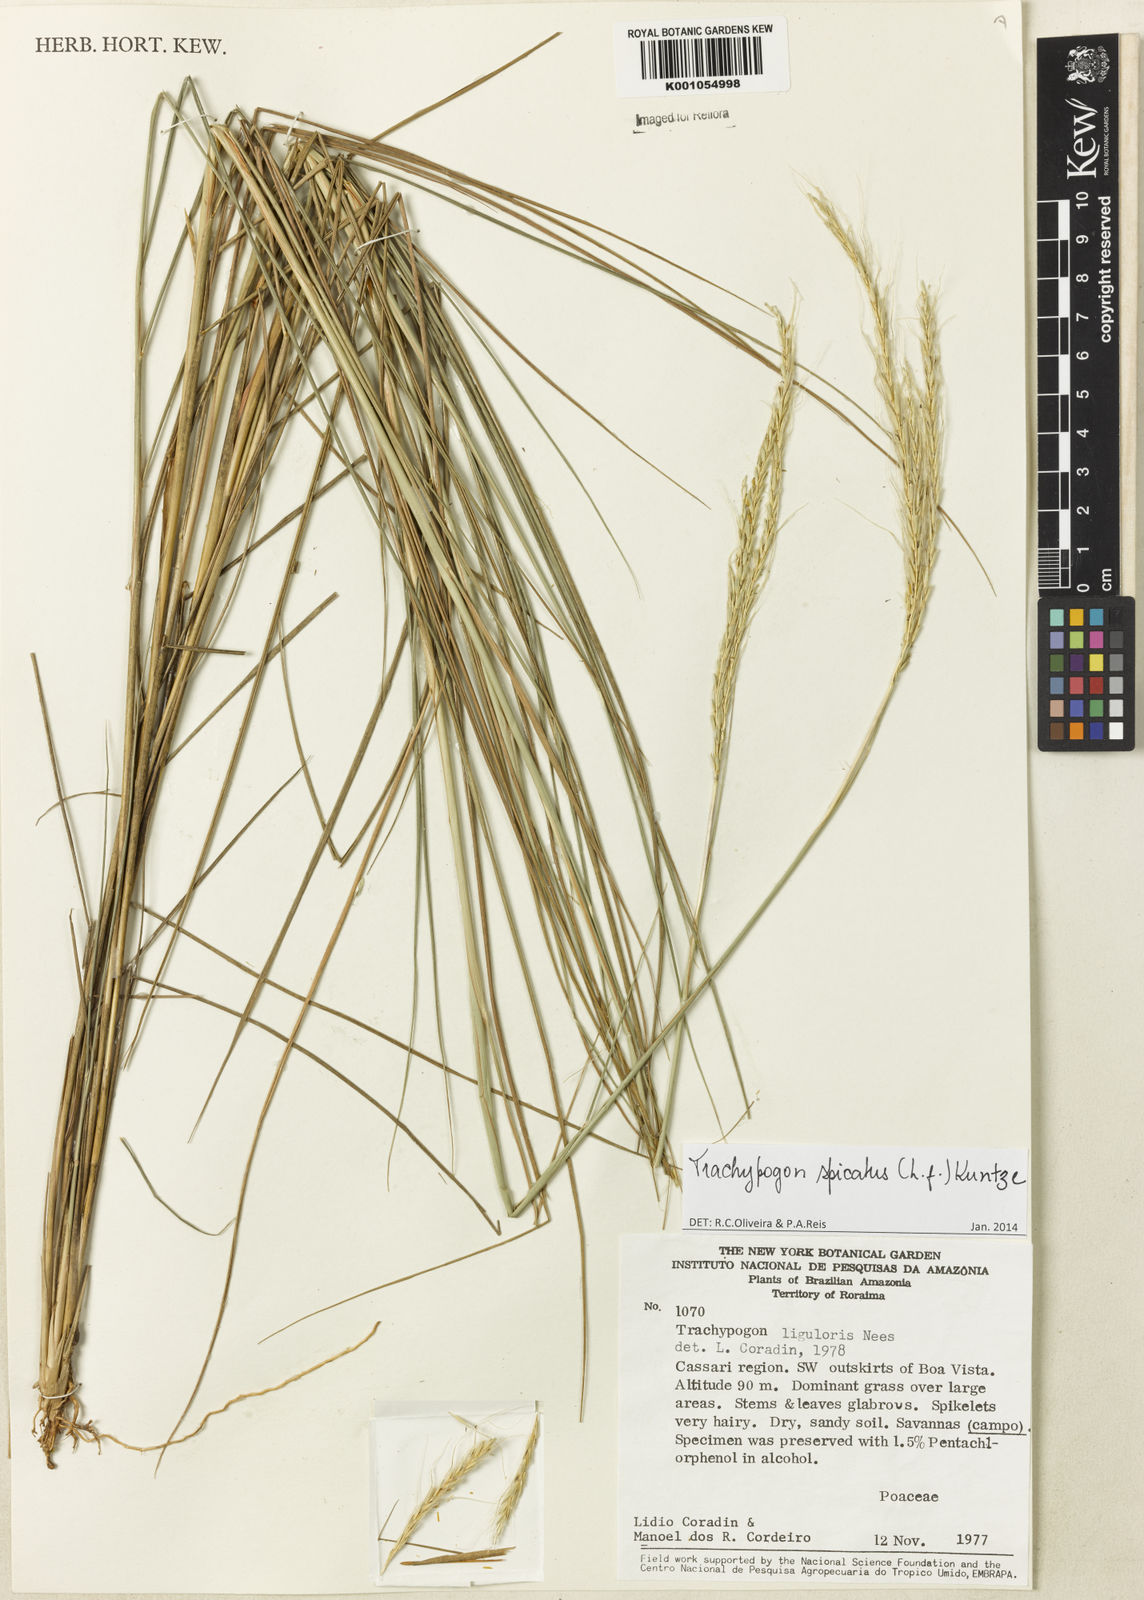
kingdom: Plantae
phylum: Tracheophyta
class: Liliopsida
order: Poales
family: Poaceae
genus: Trachypogon
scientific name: Trachypogon spicatus
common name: Crinkle-awn
